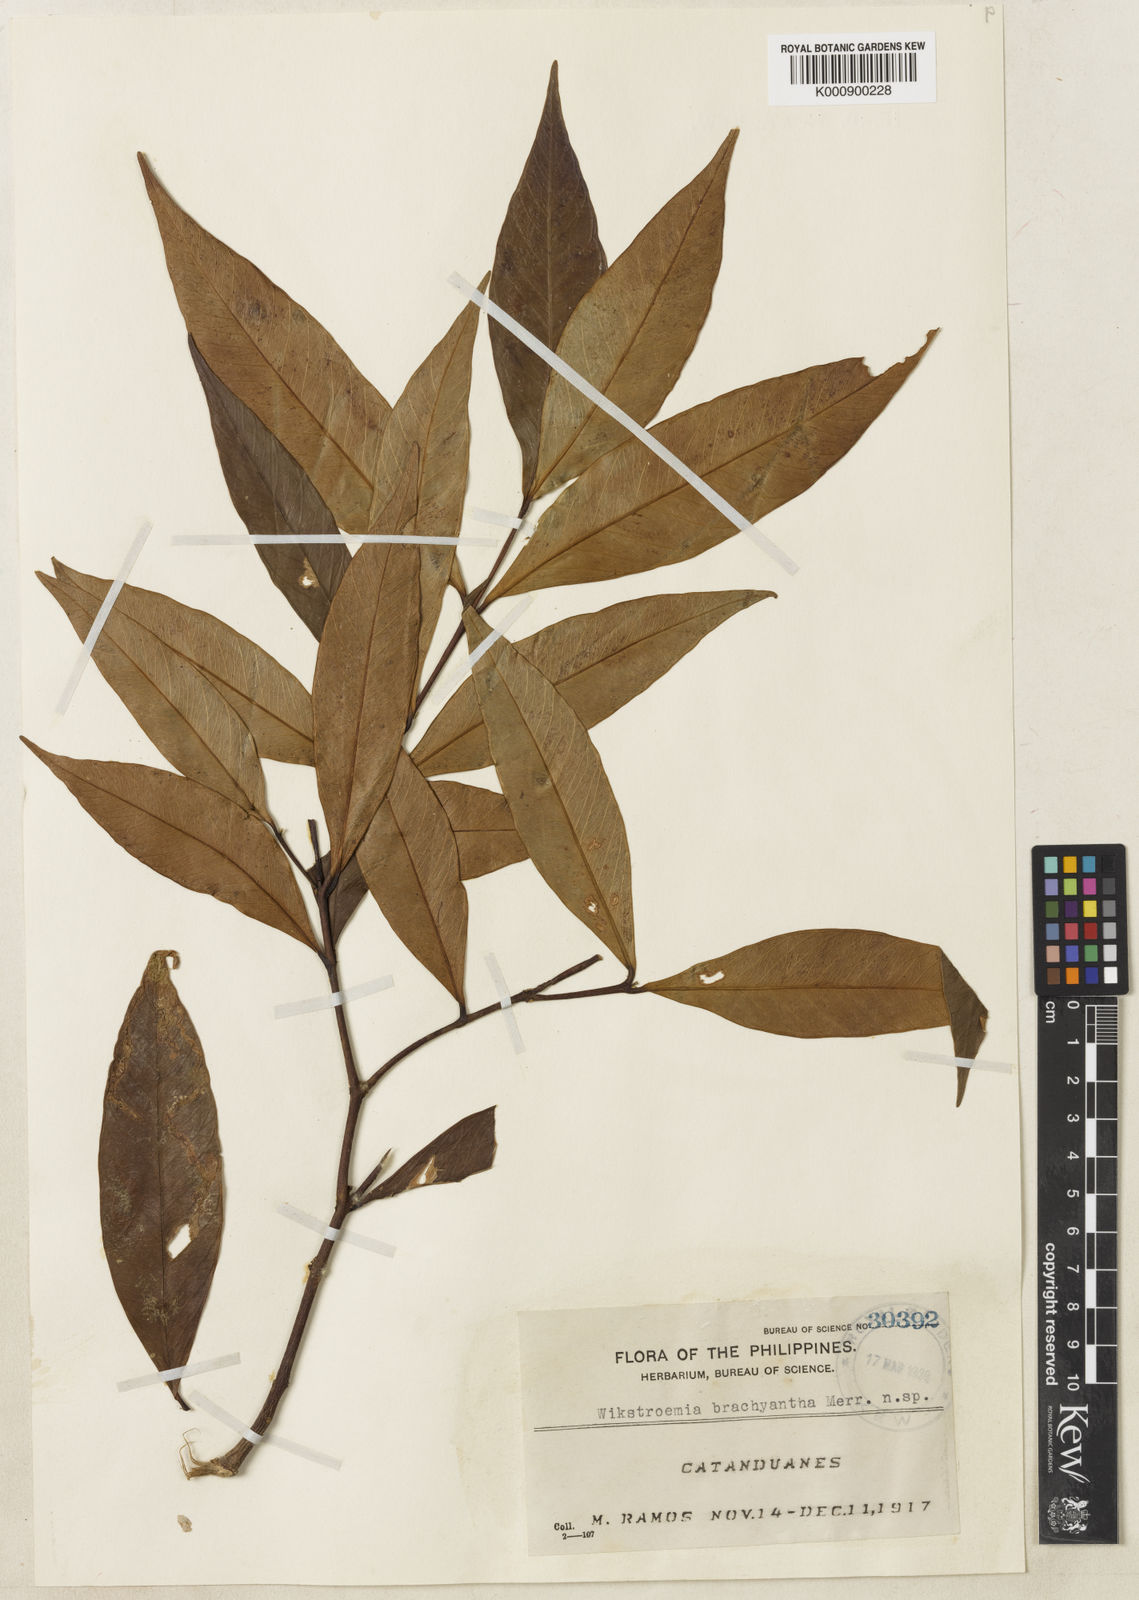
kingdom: Plantae
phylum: Tracheophyta
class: Magnoliopsida
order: Malvales
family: Thymelaeaceae
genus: Wikstroemia
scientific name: Wikstroemia brachyantha
